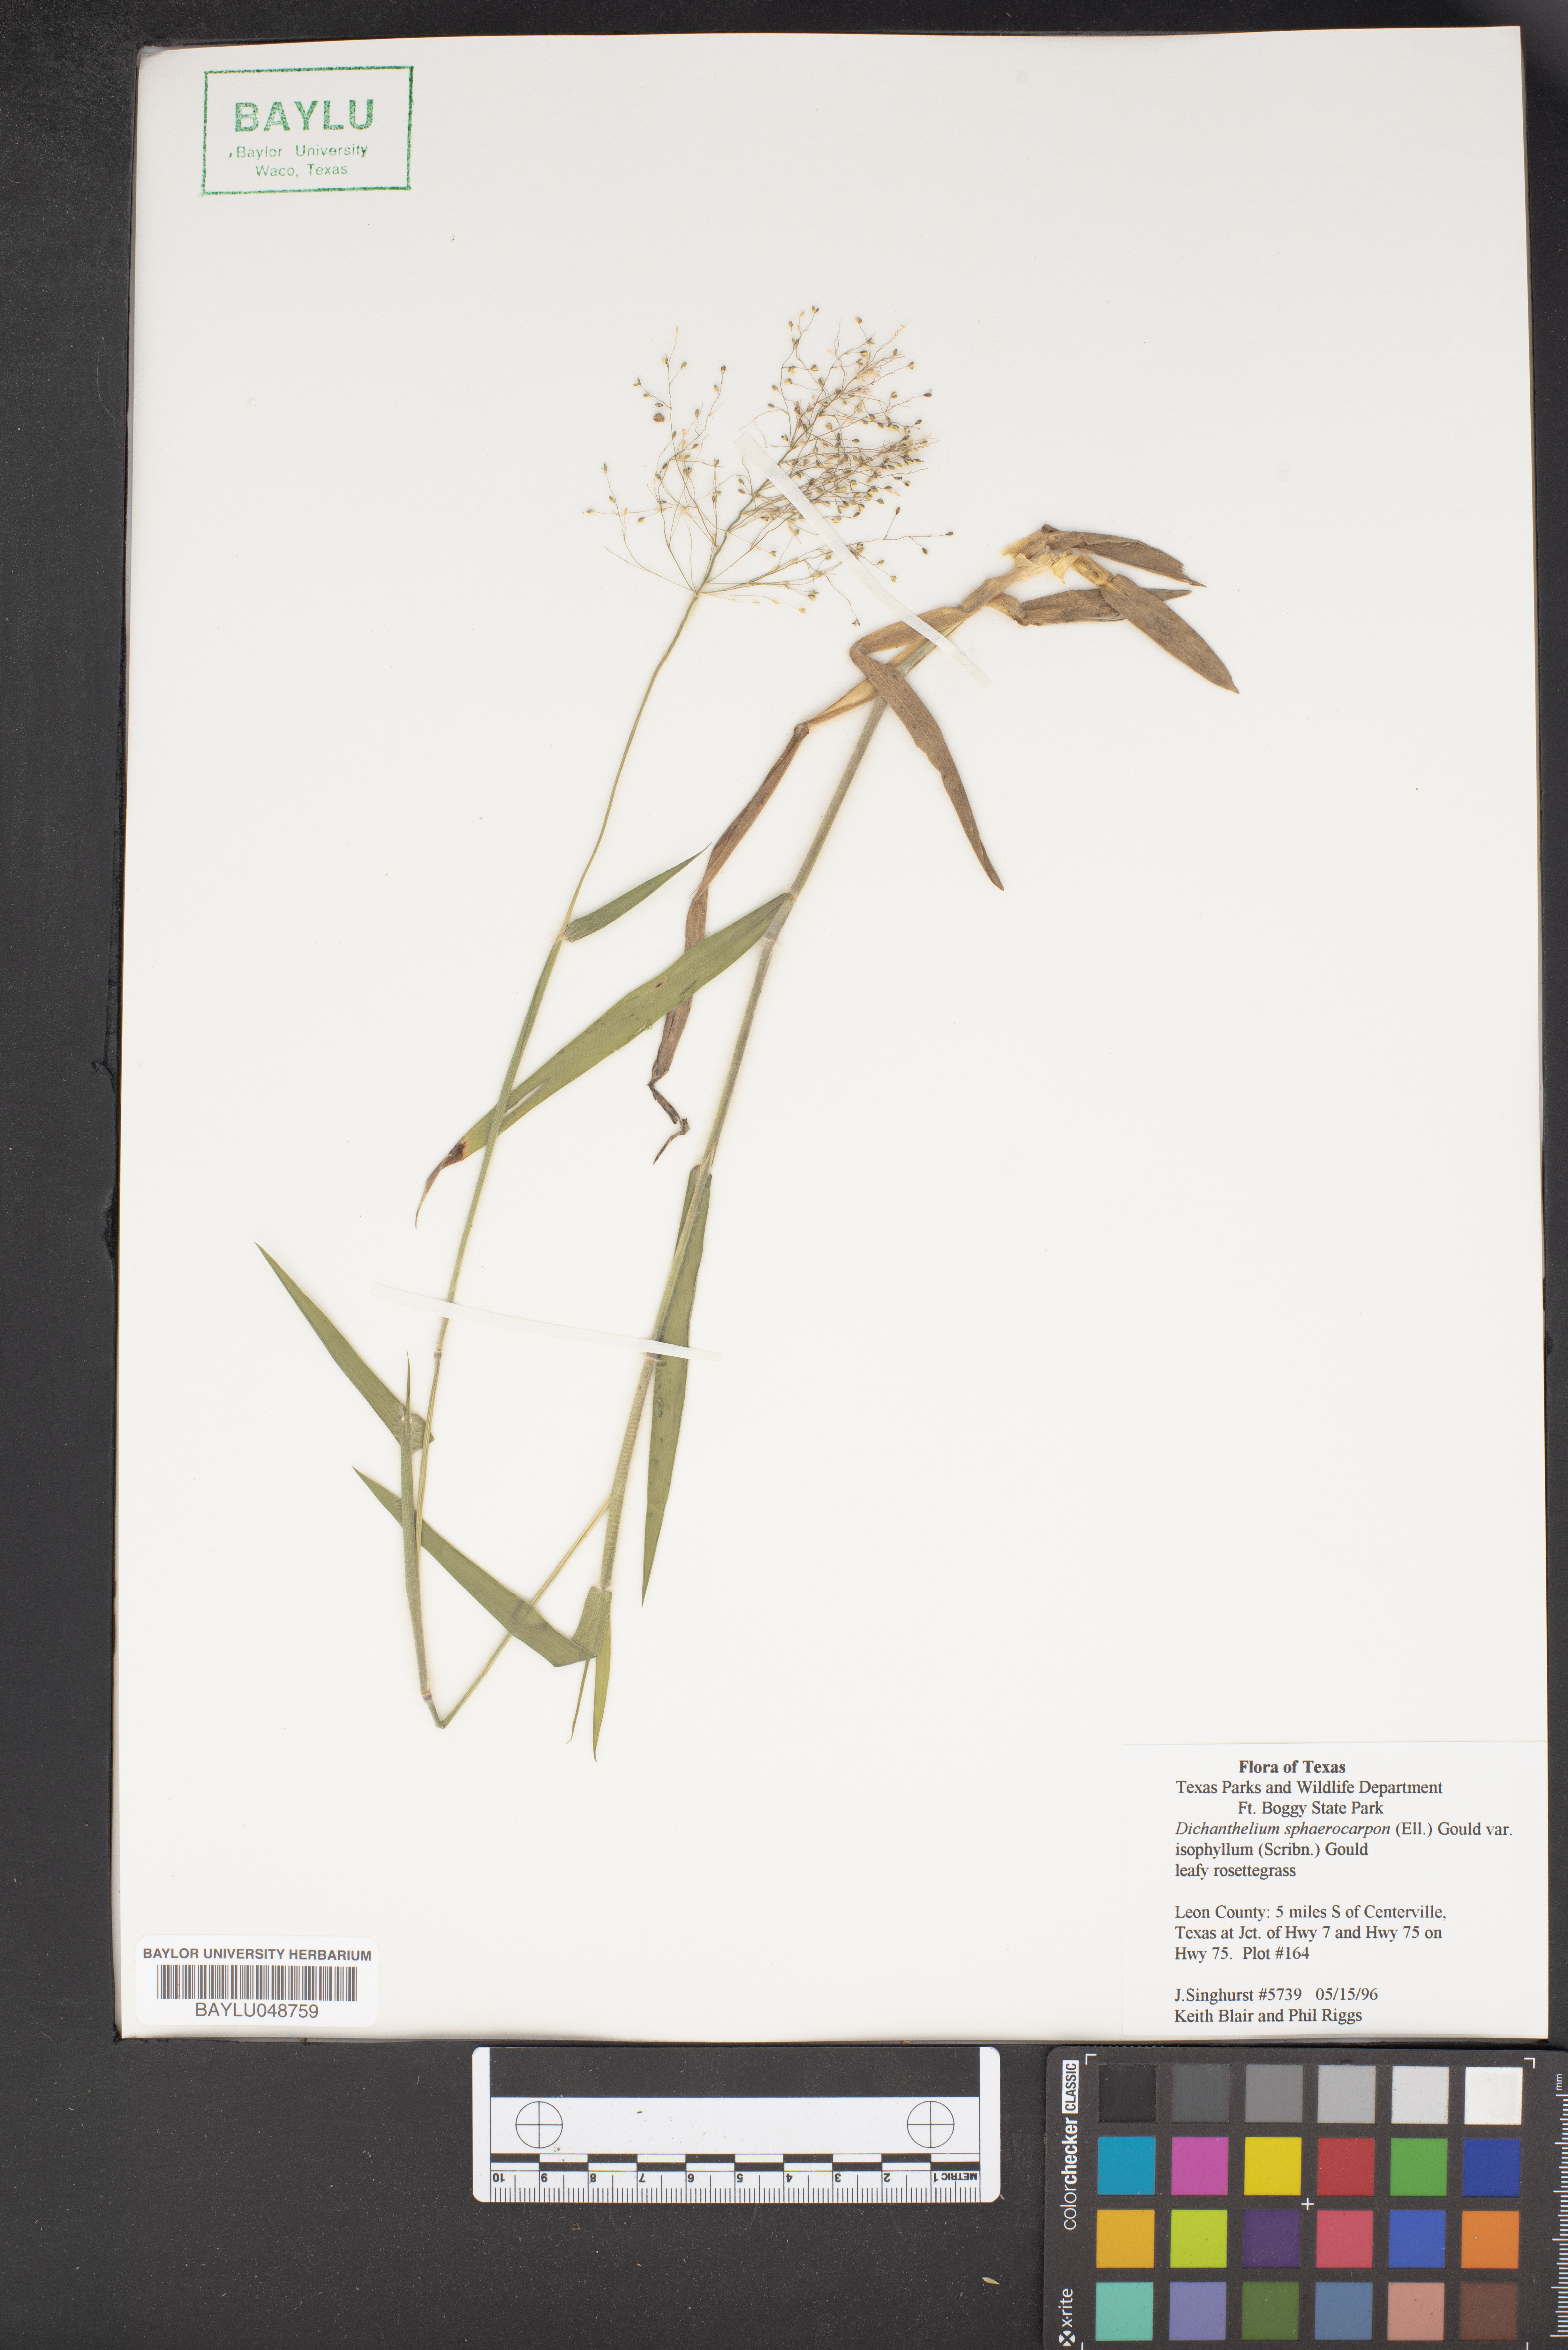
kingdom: Plantae
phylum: Tracheophyta
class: Liliopsida
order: Poales
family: Poaceae
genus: Dichanthelium
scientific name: Dichanthelium polyanthes
